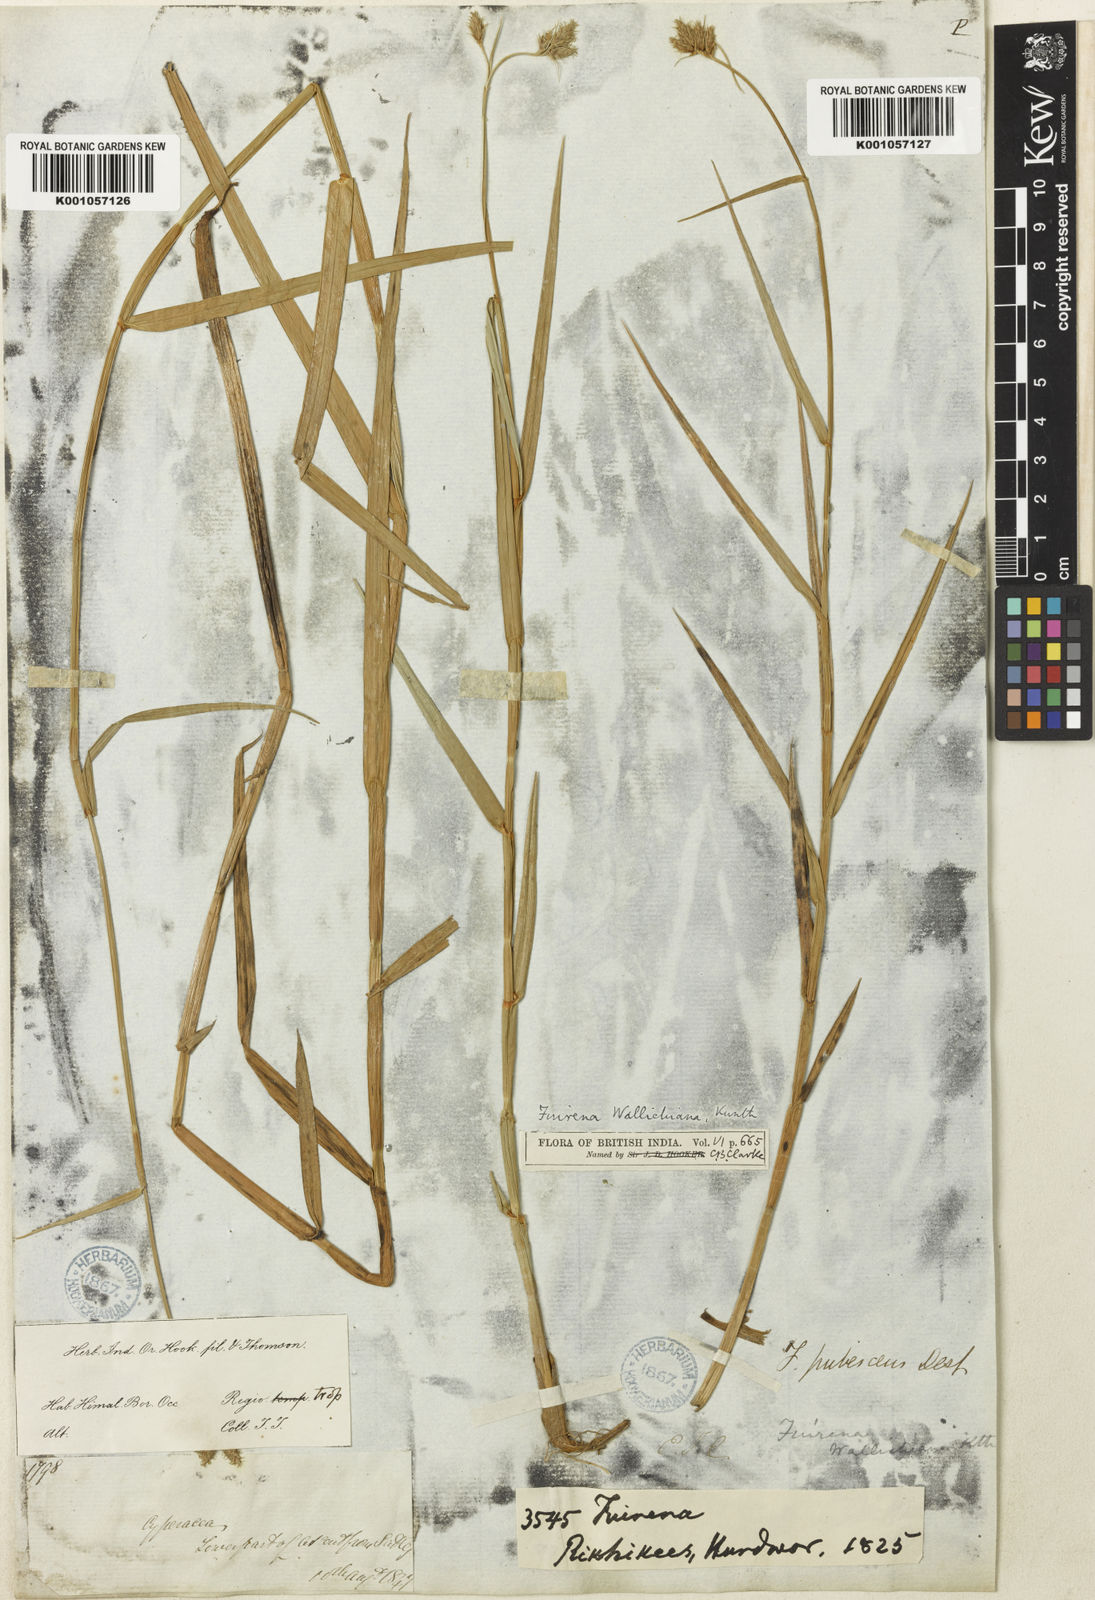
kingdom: Plantae
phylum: Tracheophyta
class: Liliopsida
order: Poales
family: Cyperaceae
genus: Fuirena
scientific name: Fuirena cuspidata
